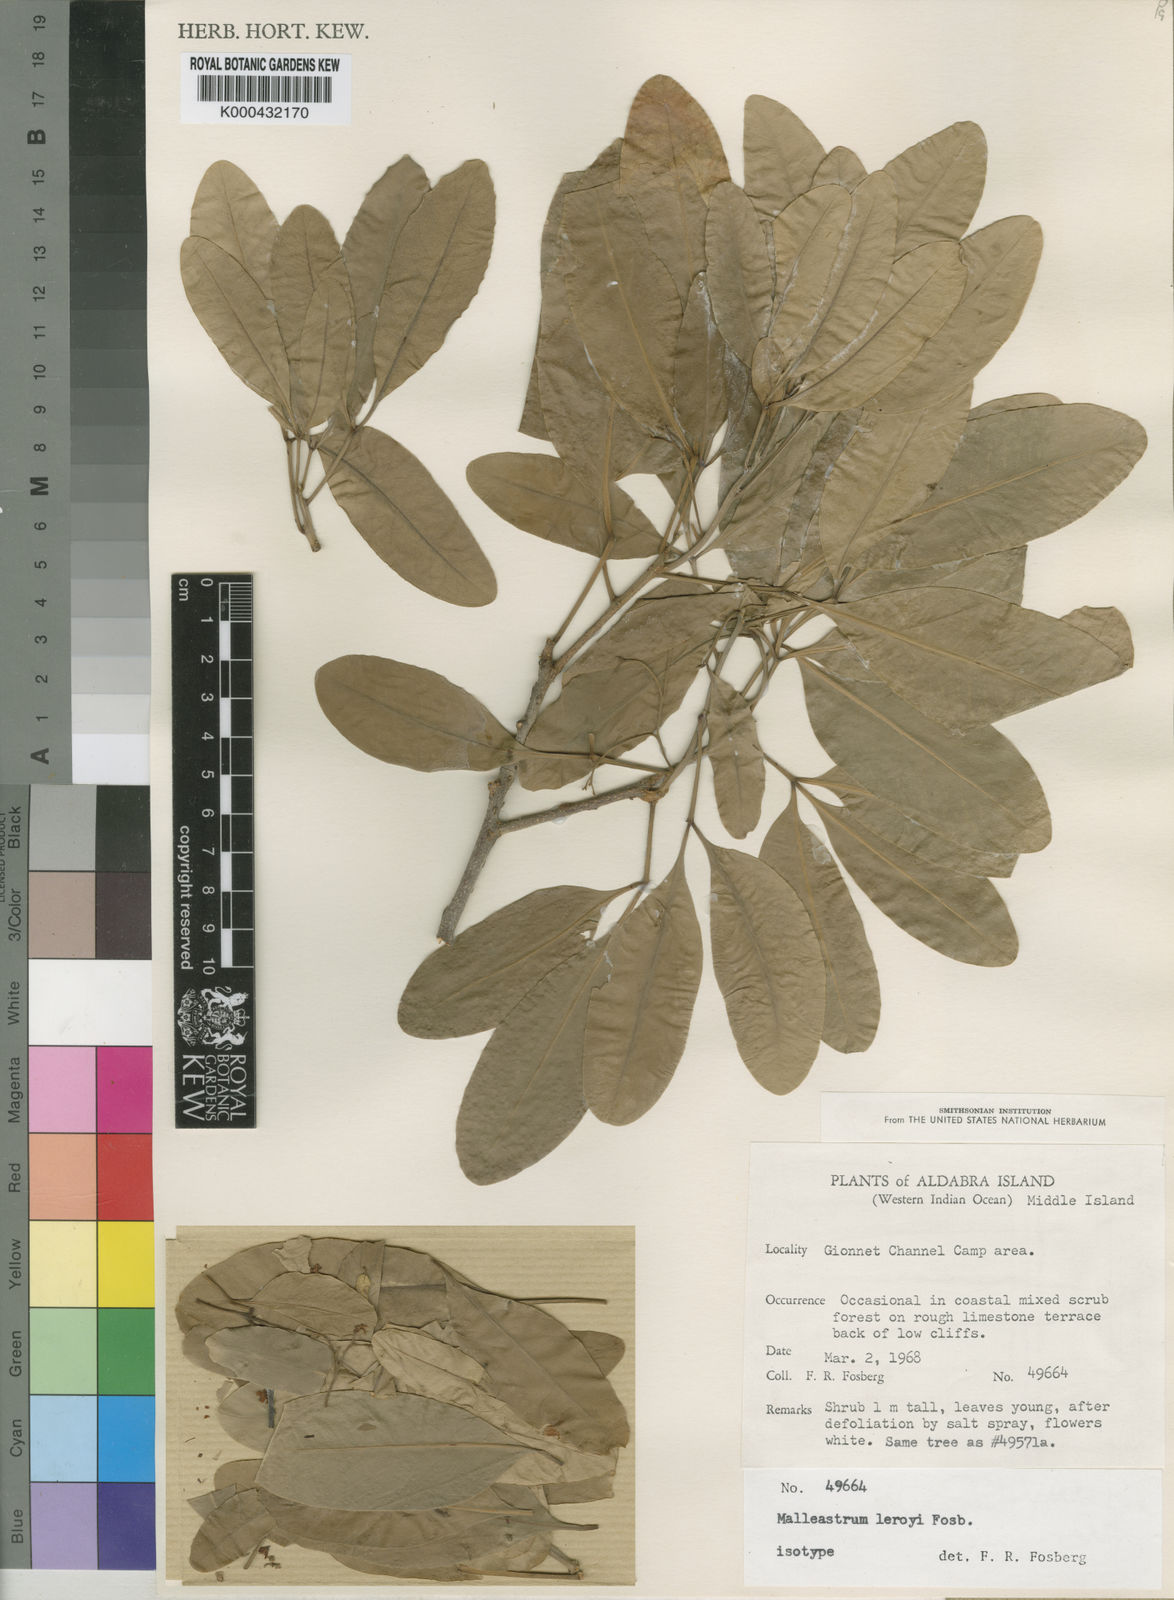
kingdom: Plantae
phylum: Tracheophyta
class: Magnoliopsida
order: Sapindales
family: Meliaceae
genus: Malleastrum
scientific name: Malleastrum leroyi
